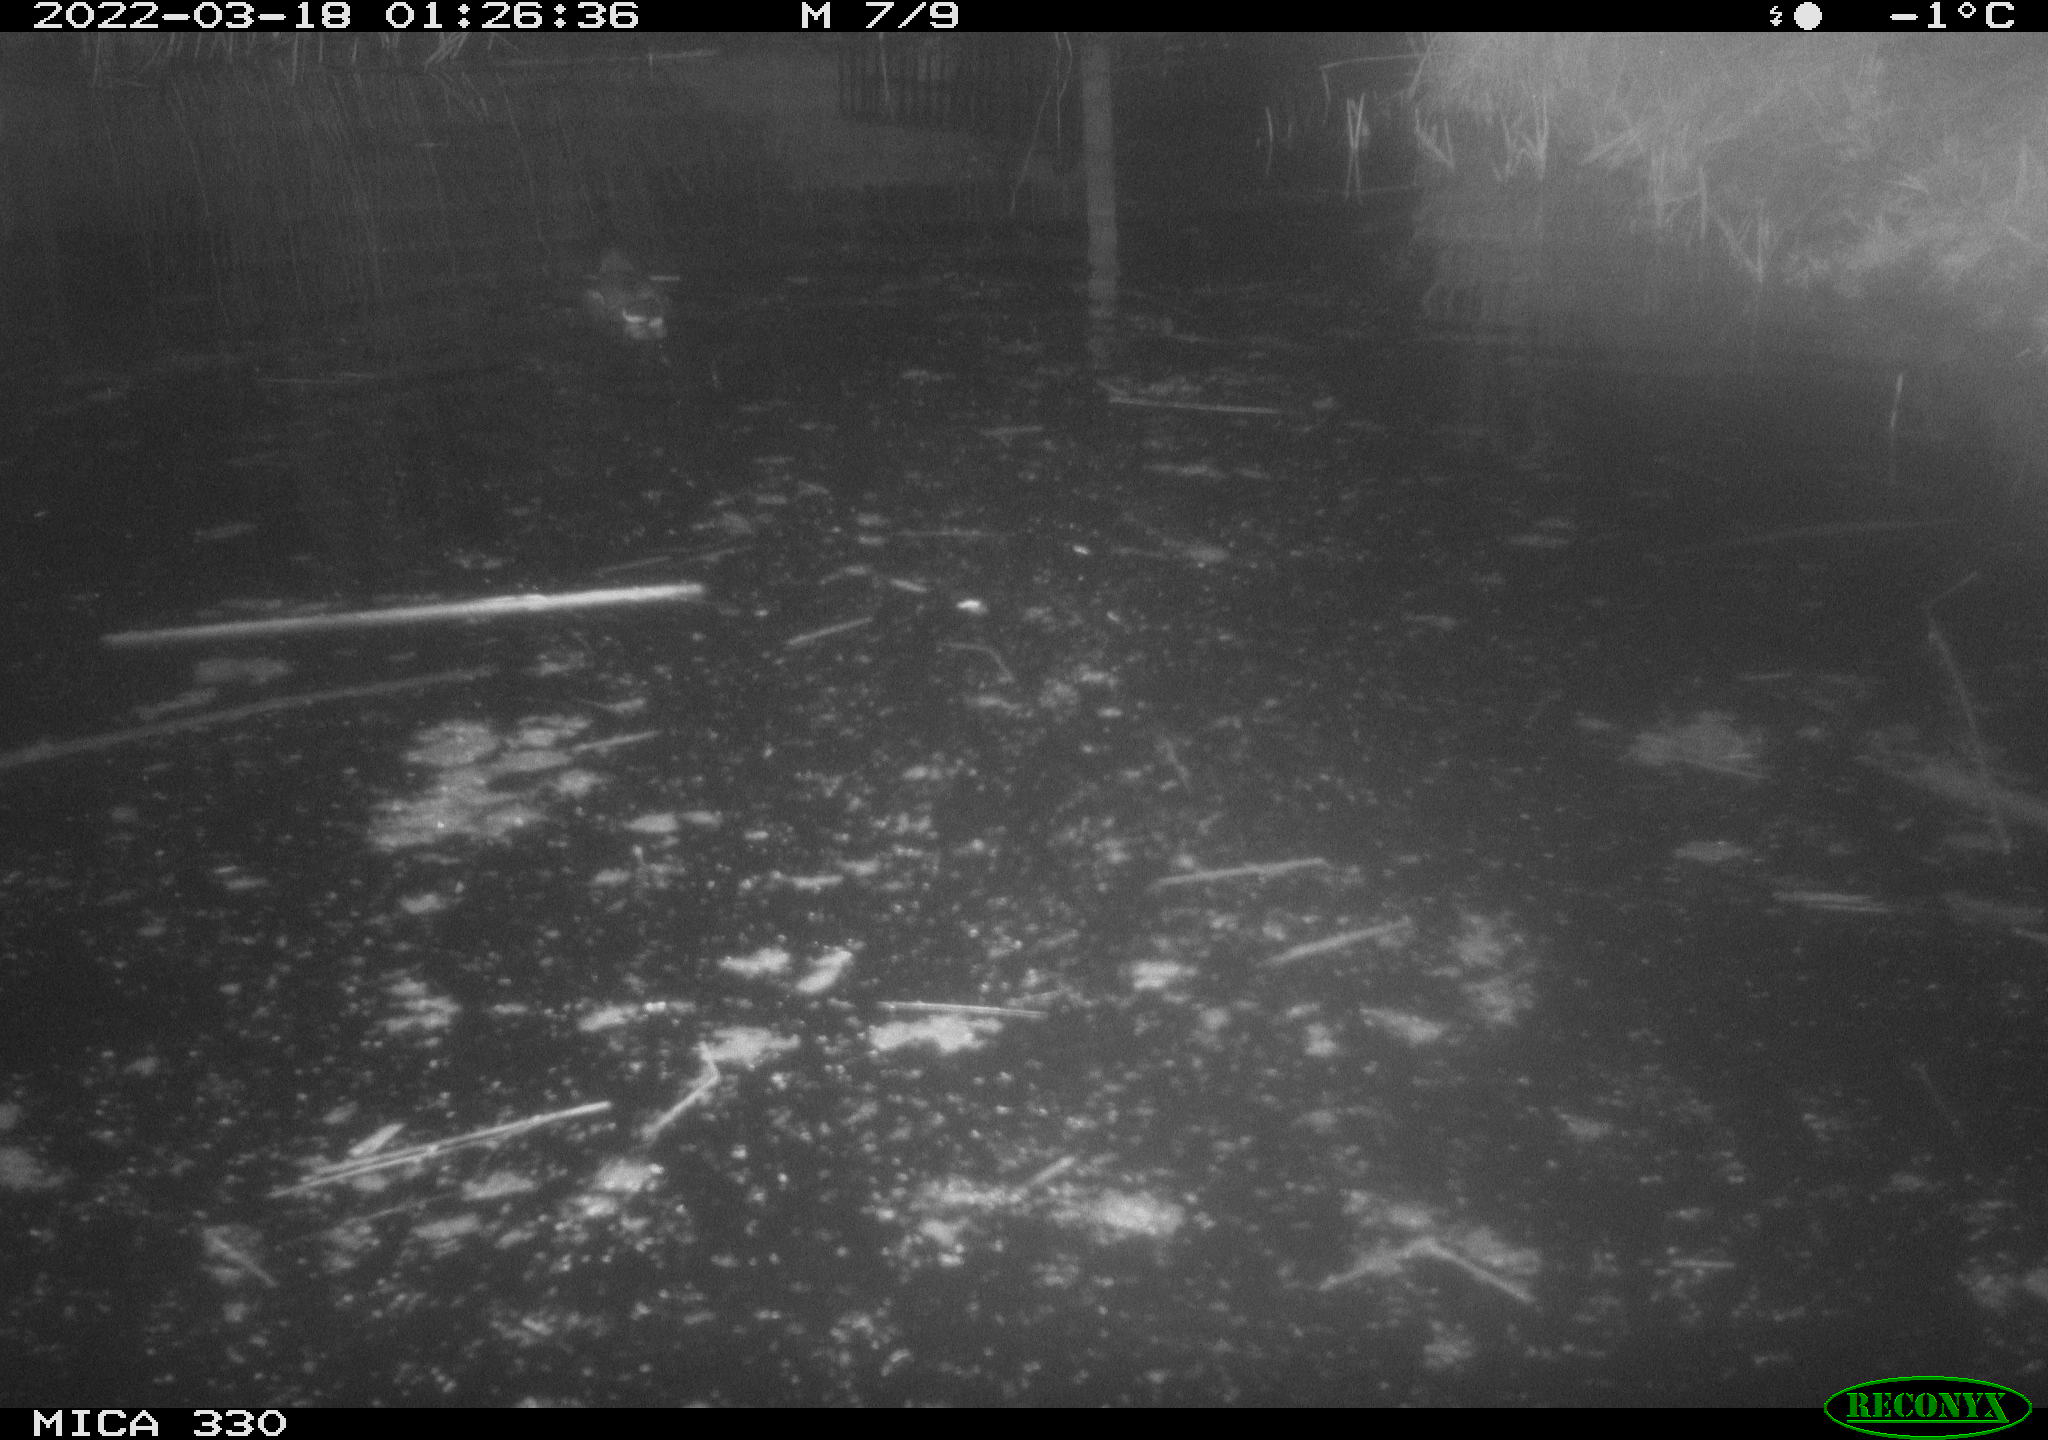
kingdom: Animalia
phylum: Chordata
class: Aves
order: Gruiformes
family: Rallidae
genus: Gallinula
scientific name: Gallinula chloropus
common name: Common moorhen
